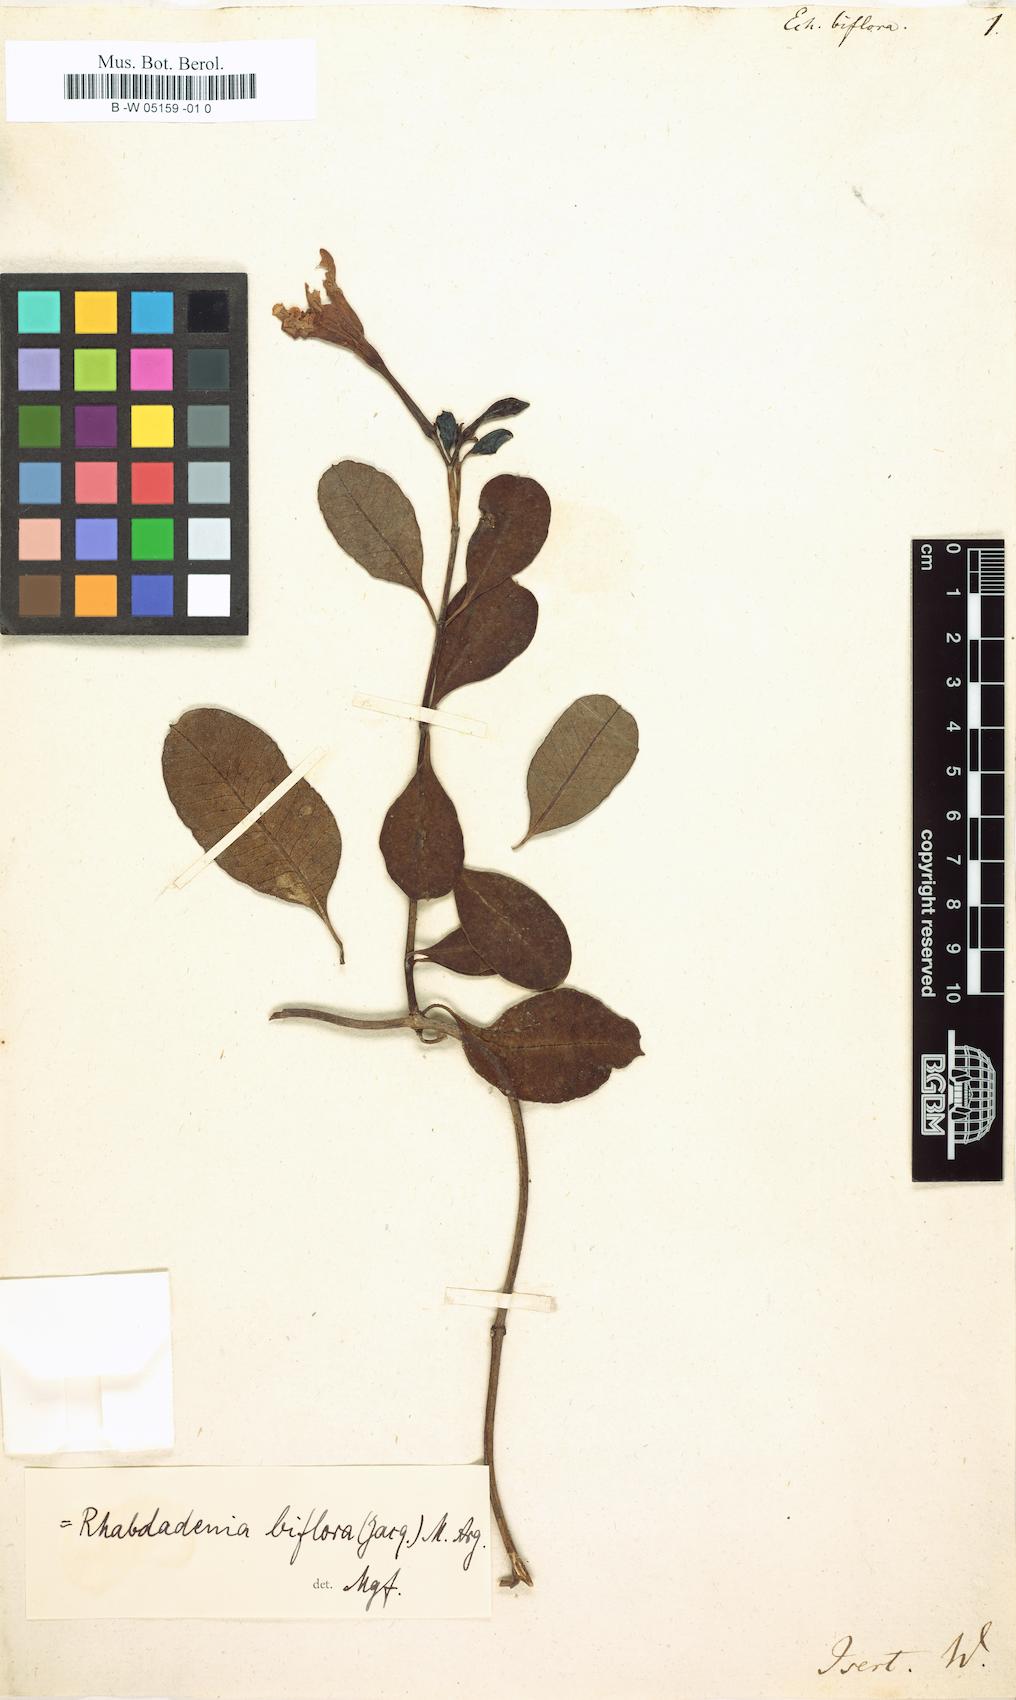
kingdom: Plantae
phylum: Tracheophyta
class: Magnoliopsida
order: Gentianales
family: Apocynaceae
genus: Rhabdadenia
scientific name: Rhabdadenia biflora
